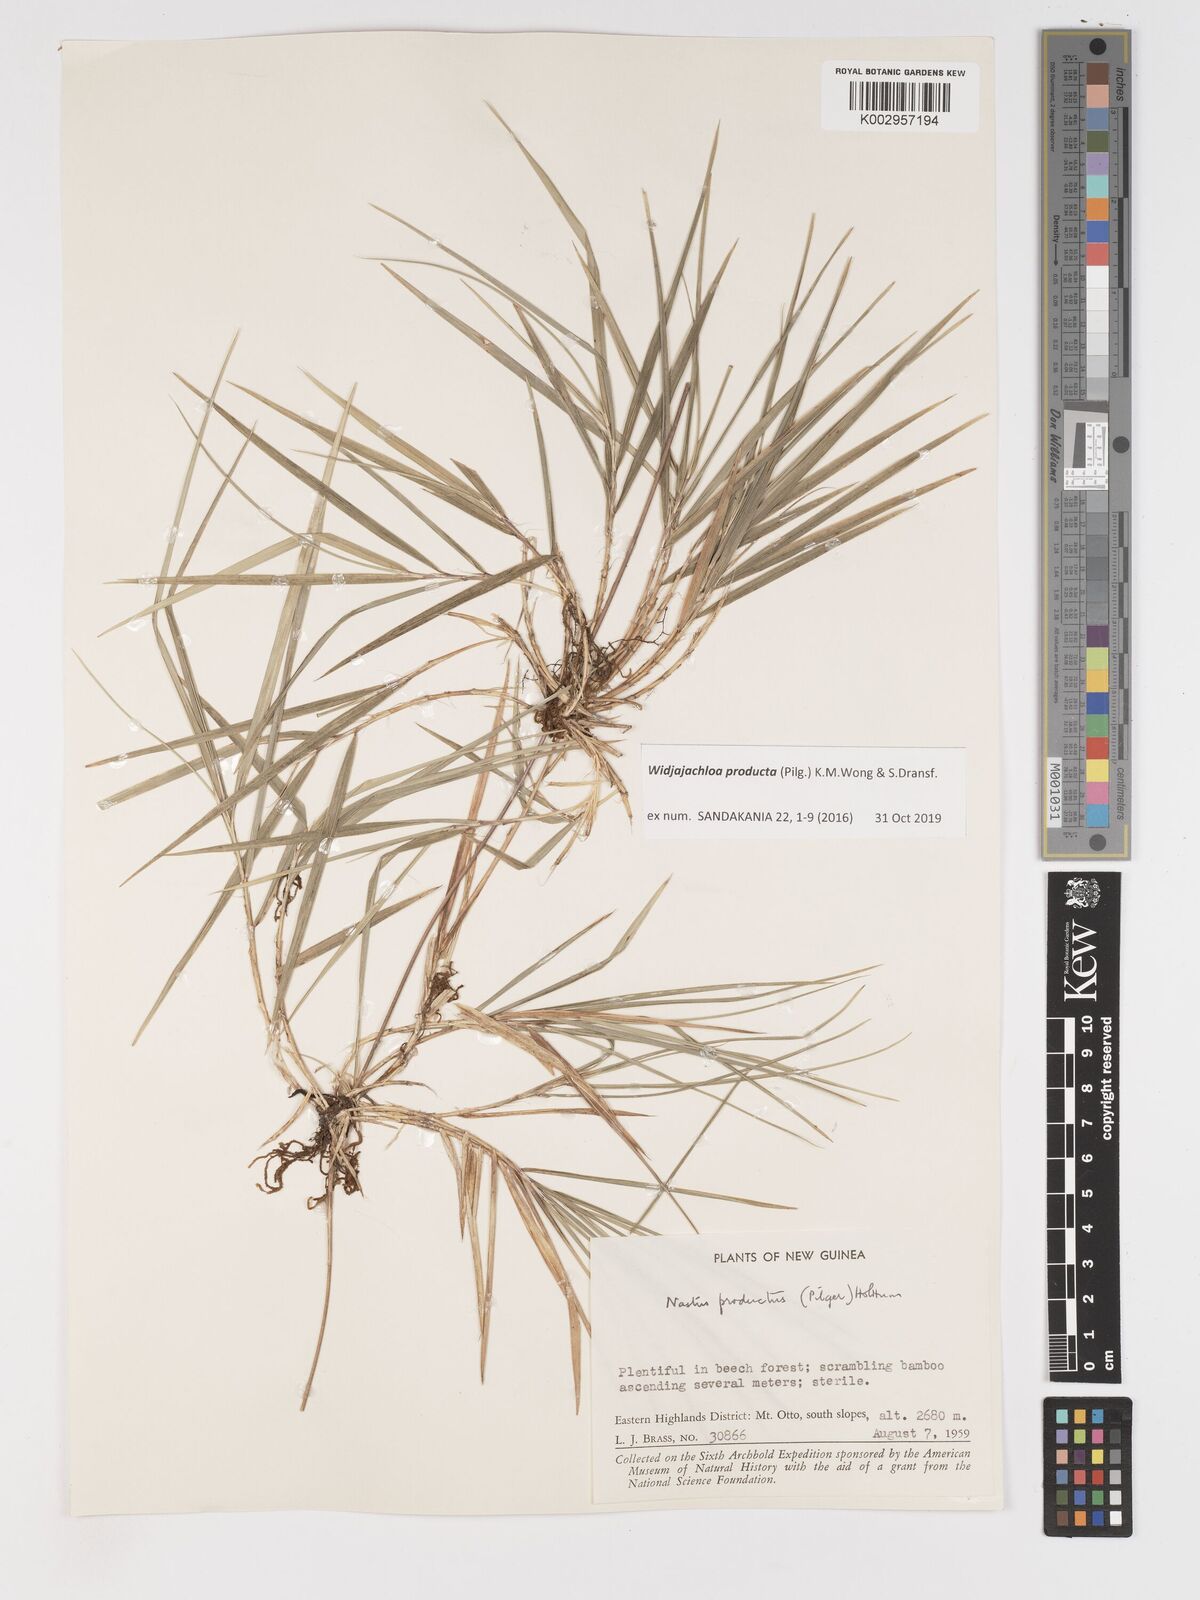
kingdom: Plantae
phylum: Tracheophyta
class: Liliopsida
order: Poales
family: Poaceae
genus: Widjajachloa
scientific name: Widjajachloa producta
